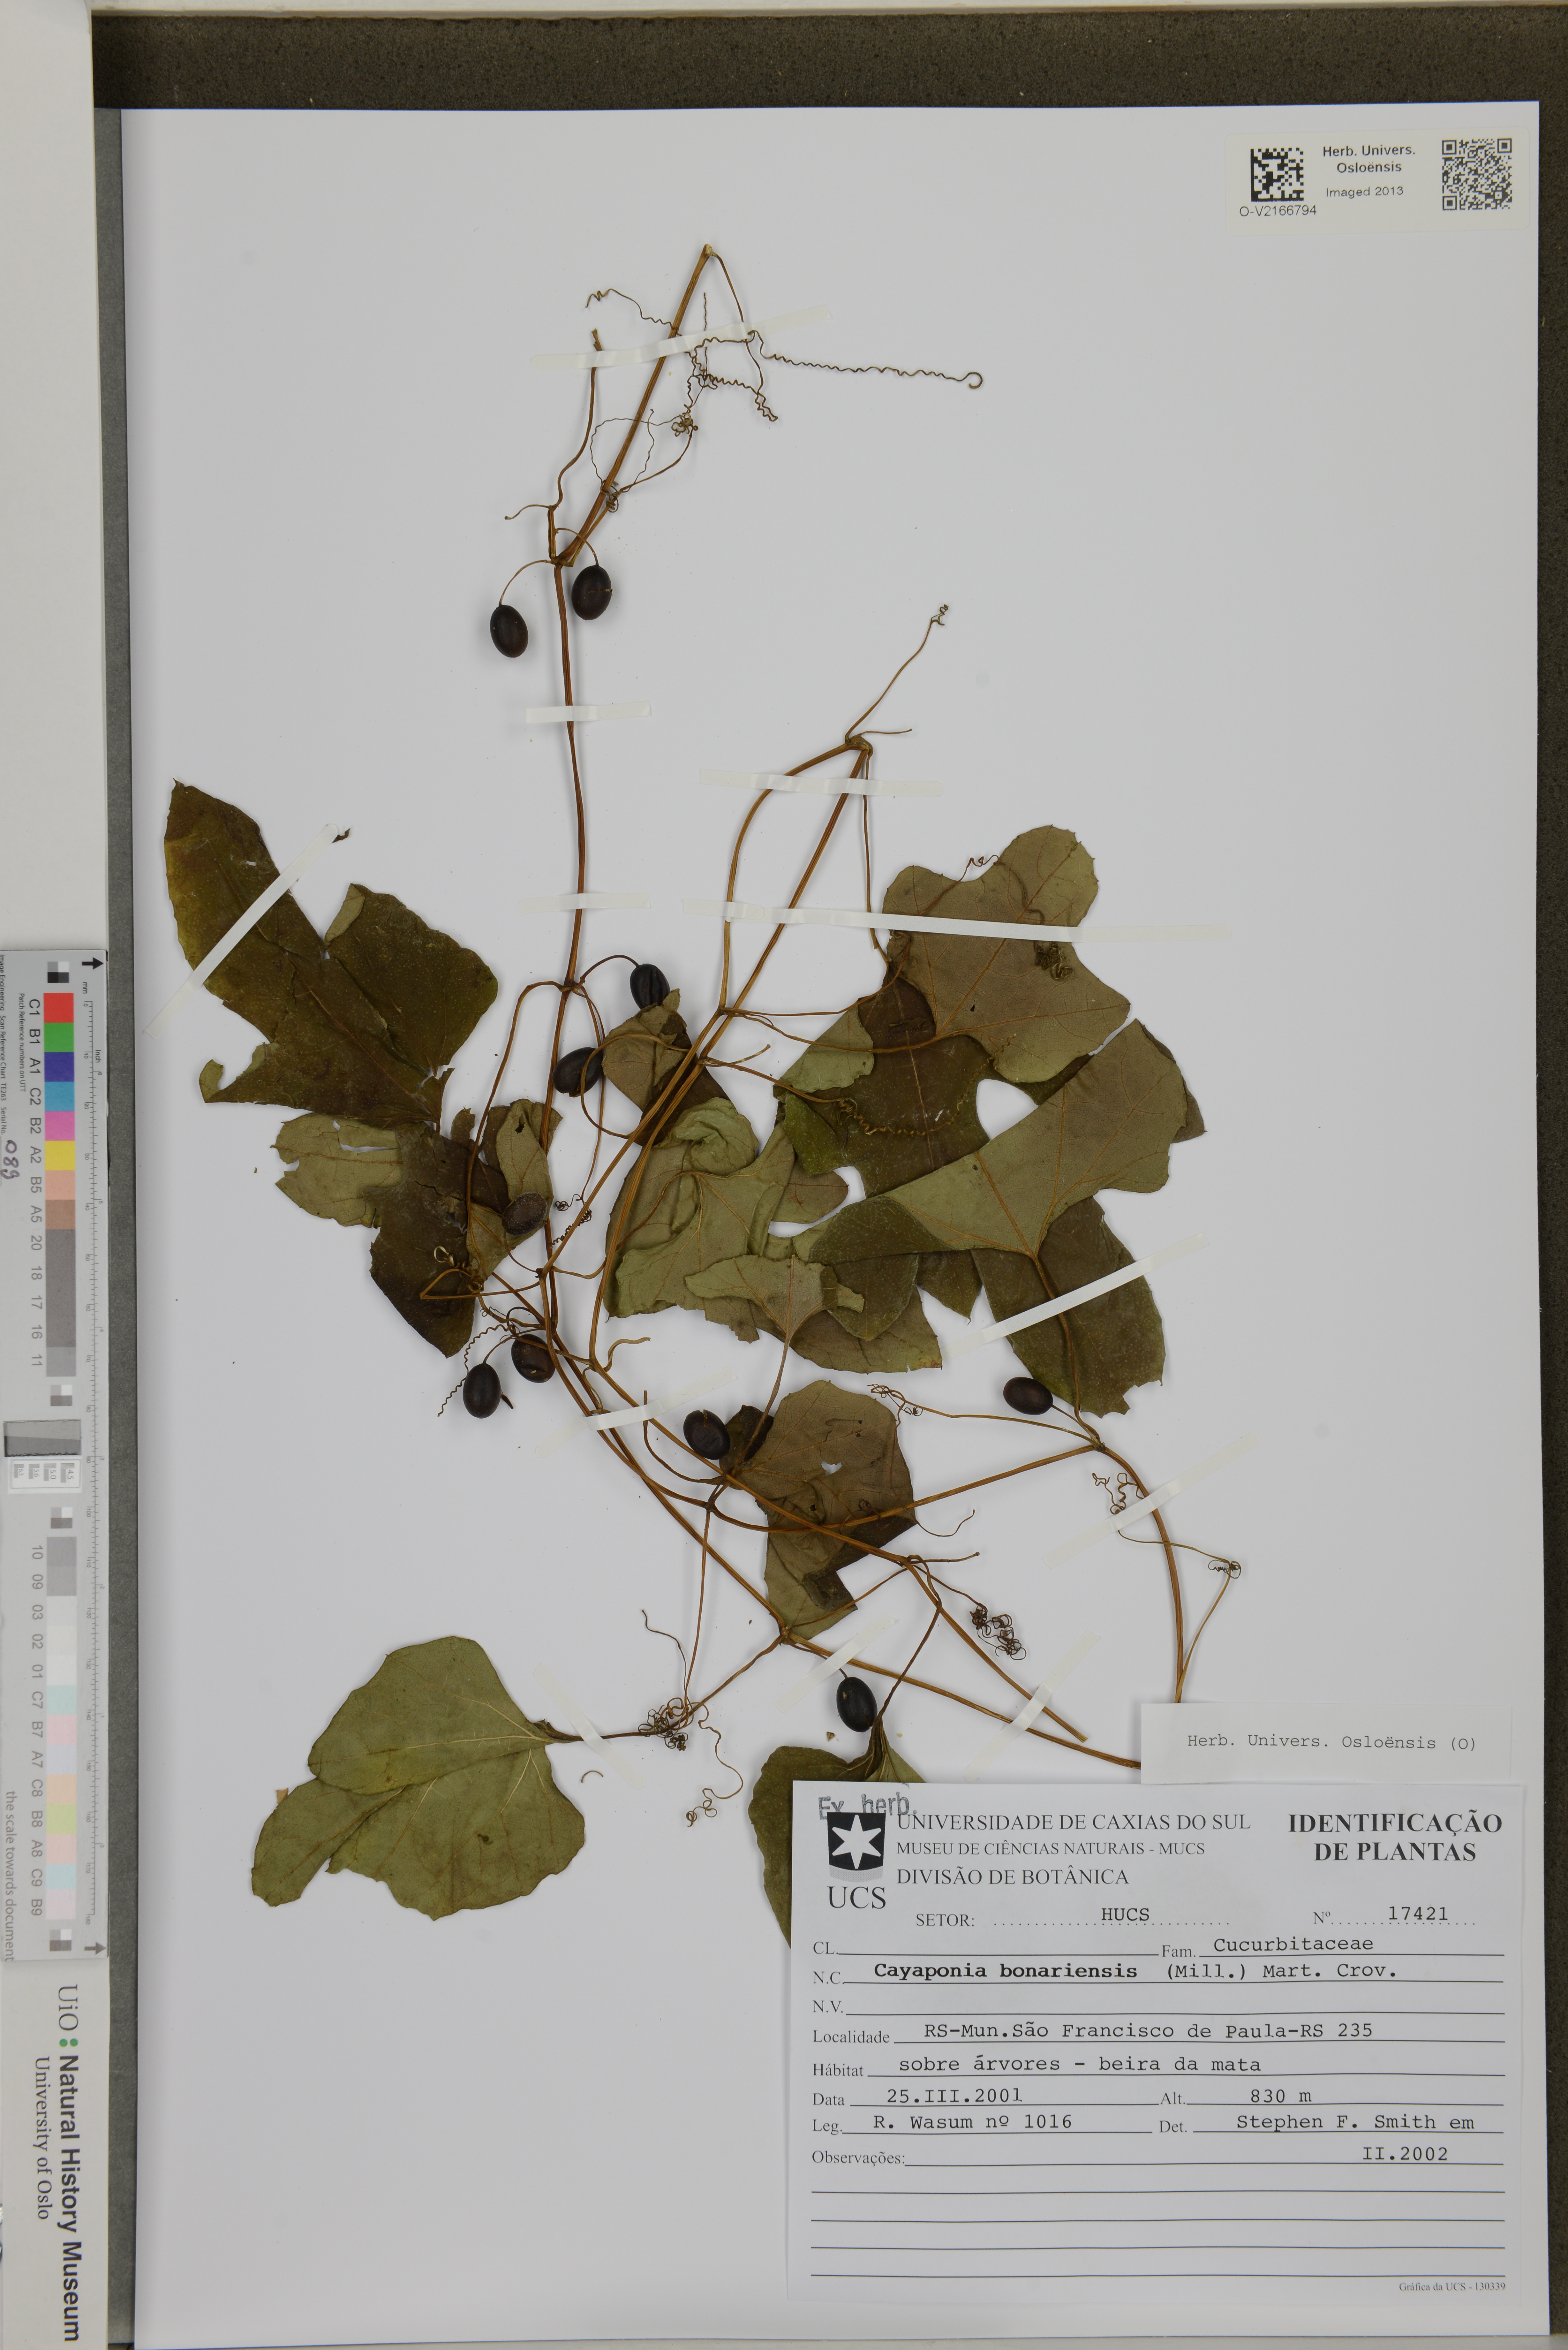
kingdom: Plantae
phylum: Tracheophyta
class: Magnoliopsida
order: Cucurbitales
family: Cucurbitaceae
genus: Cayaponia
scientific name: Cayaponia bonariensis
